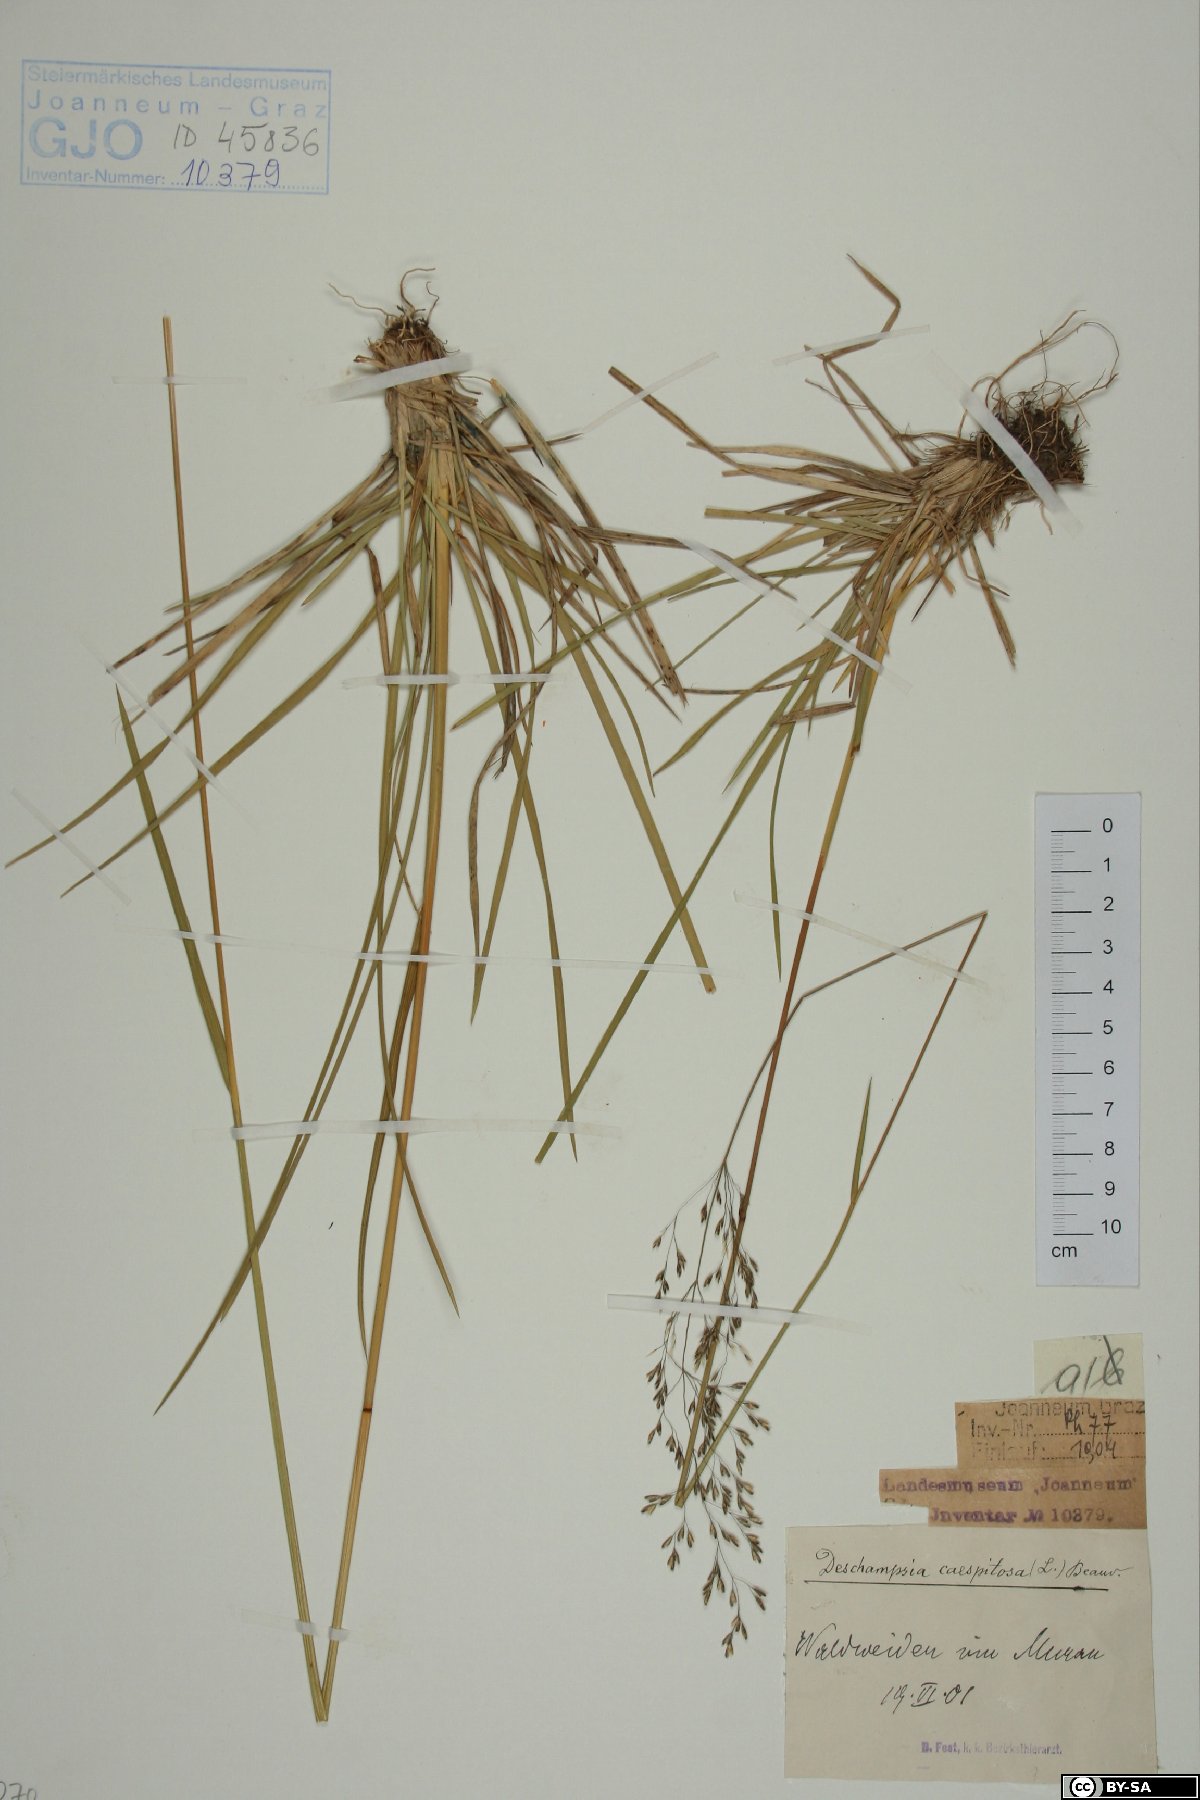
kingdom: Plantae
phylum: Tracheophyta
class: Liliopsida
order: Poales
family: Poaceae
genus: Deschampsia
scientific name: Deschampsia cespitosa
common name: Tufted hair-grass
